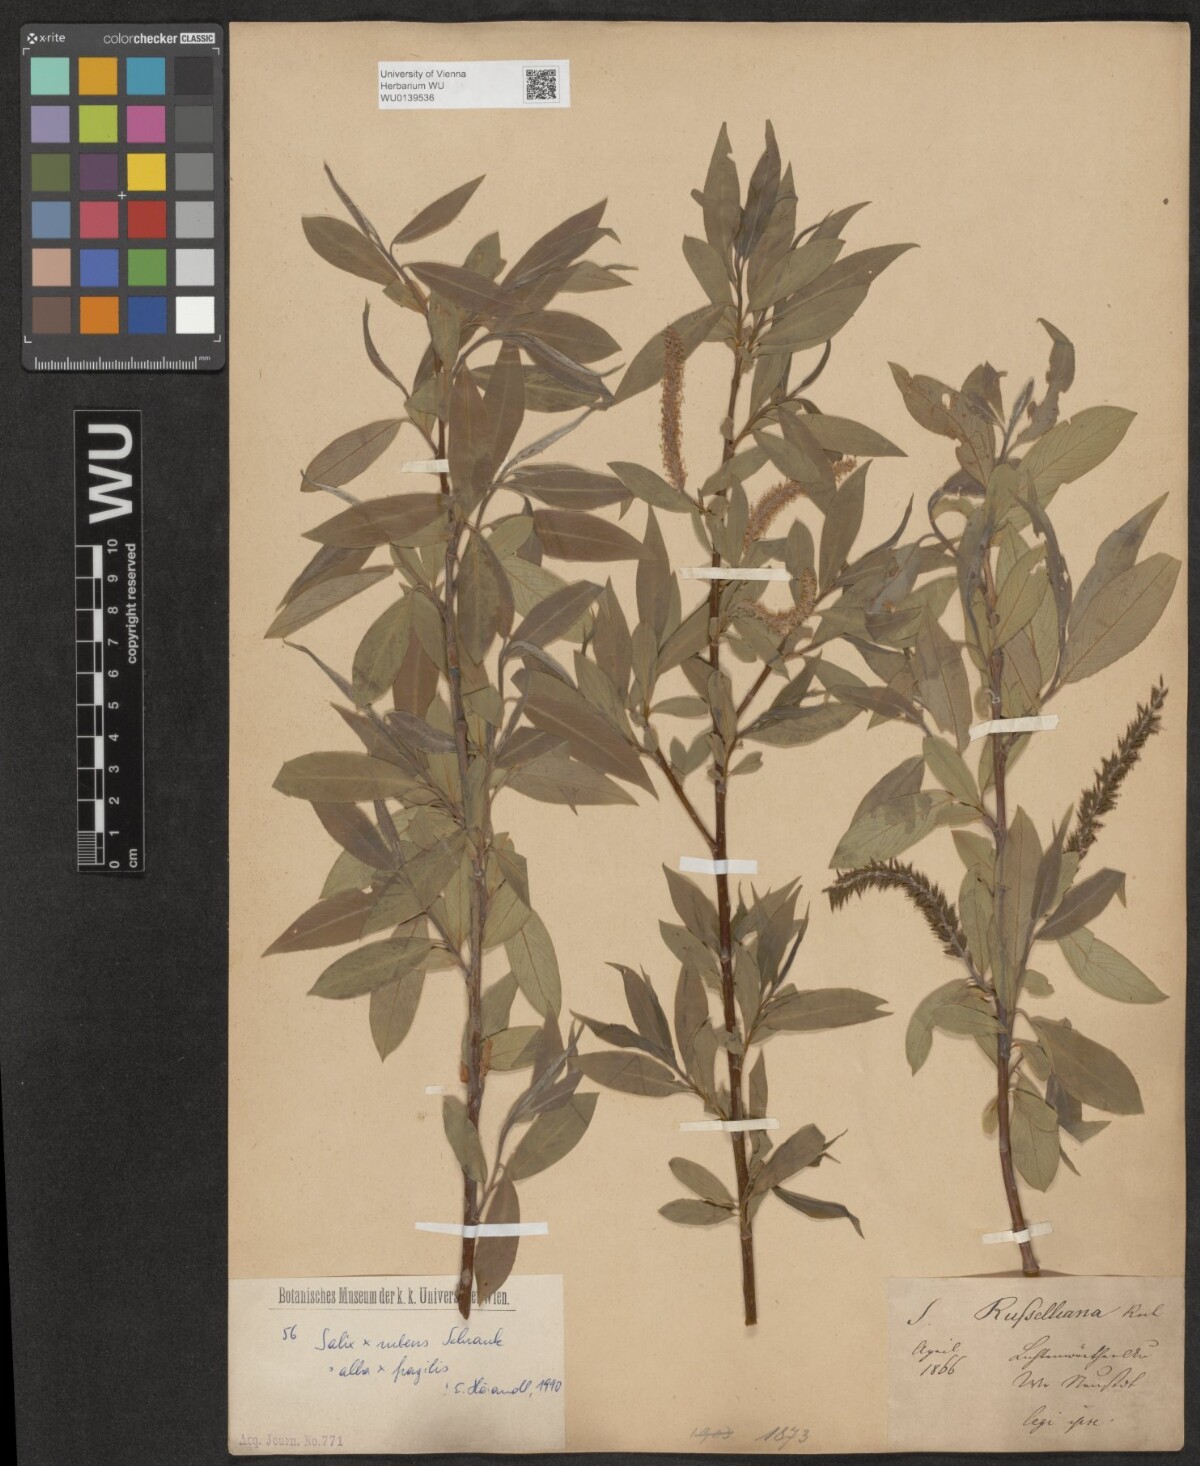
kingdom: Plantae
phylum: Tracheophyta
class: Magnoliopsida
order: Malpighiales
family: Salicaceae
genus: Salix
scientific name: Salix rubens
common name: Hybrid crack willow
